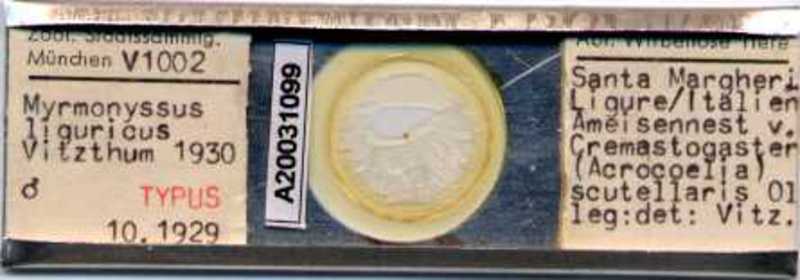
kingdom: Animalia
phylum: Arthropoda
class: Arachnida
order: Mesostigmata
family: Laelapidae
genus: Myrmozercon
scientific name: Myrmozercon liguricus
